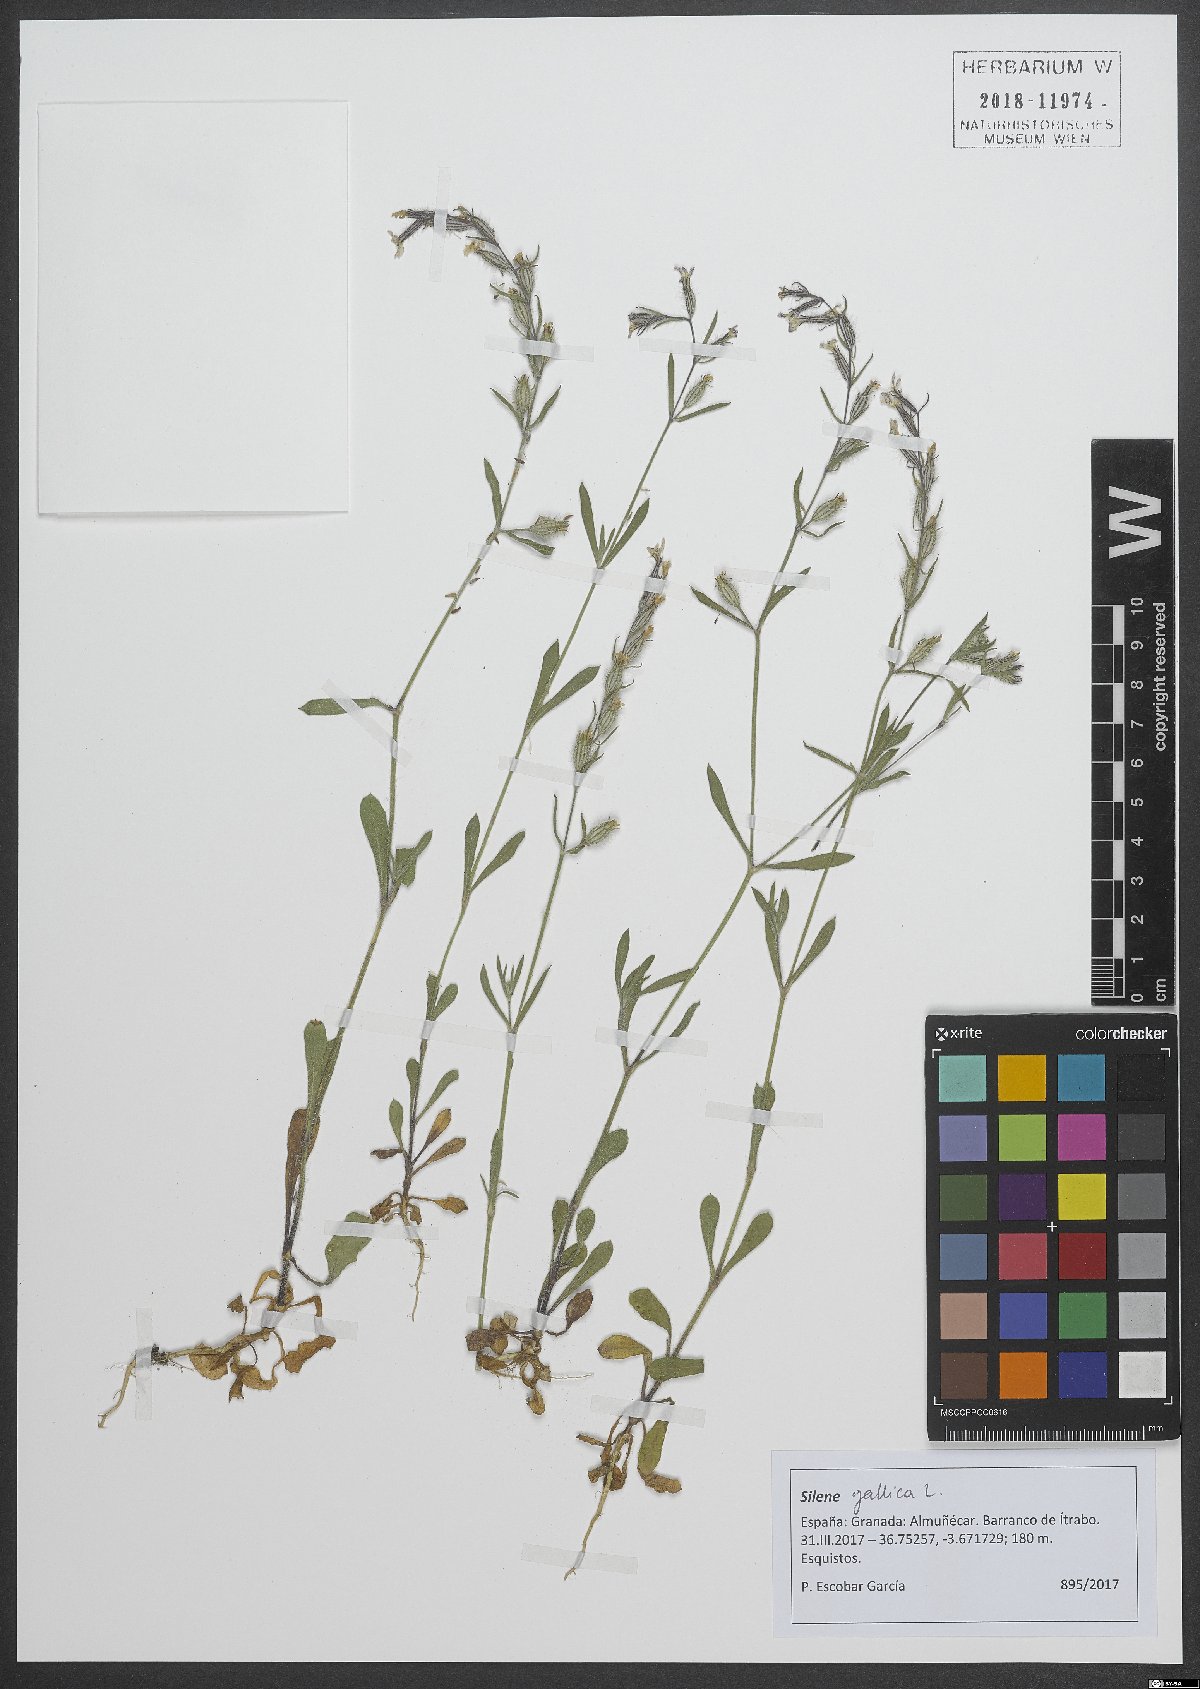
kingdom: Plantae
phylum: Tracheophyta
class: Magnoliopsida
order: Caryophyllales
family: Caryophyllaceae
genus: Silene
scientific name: Silene gallica
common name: Small-flowered catchfly
